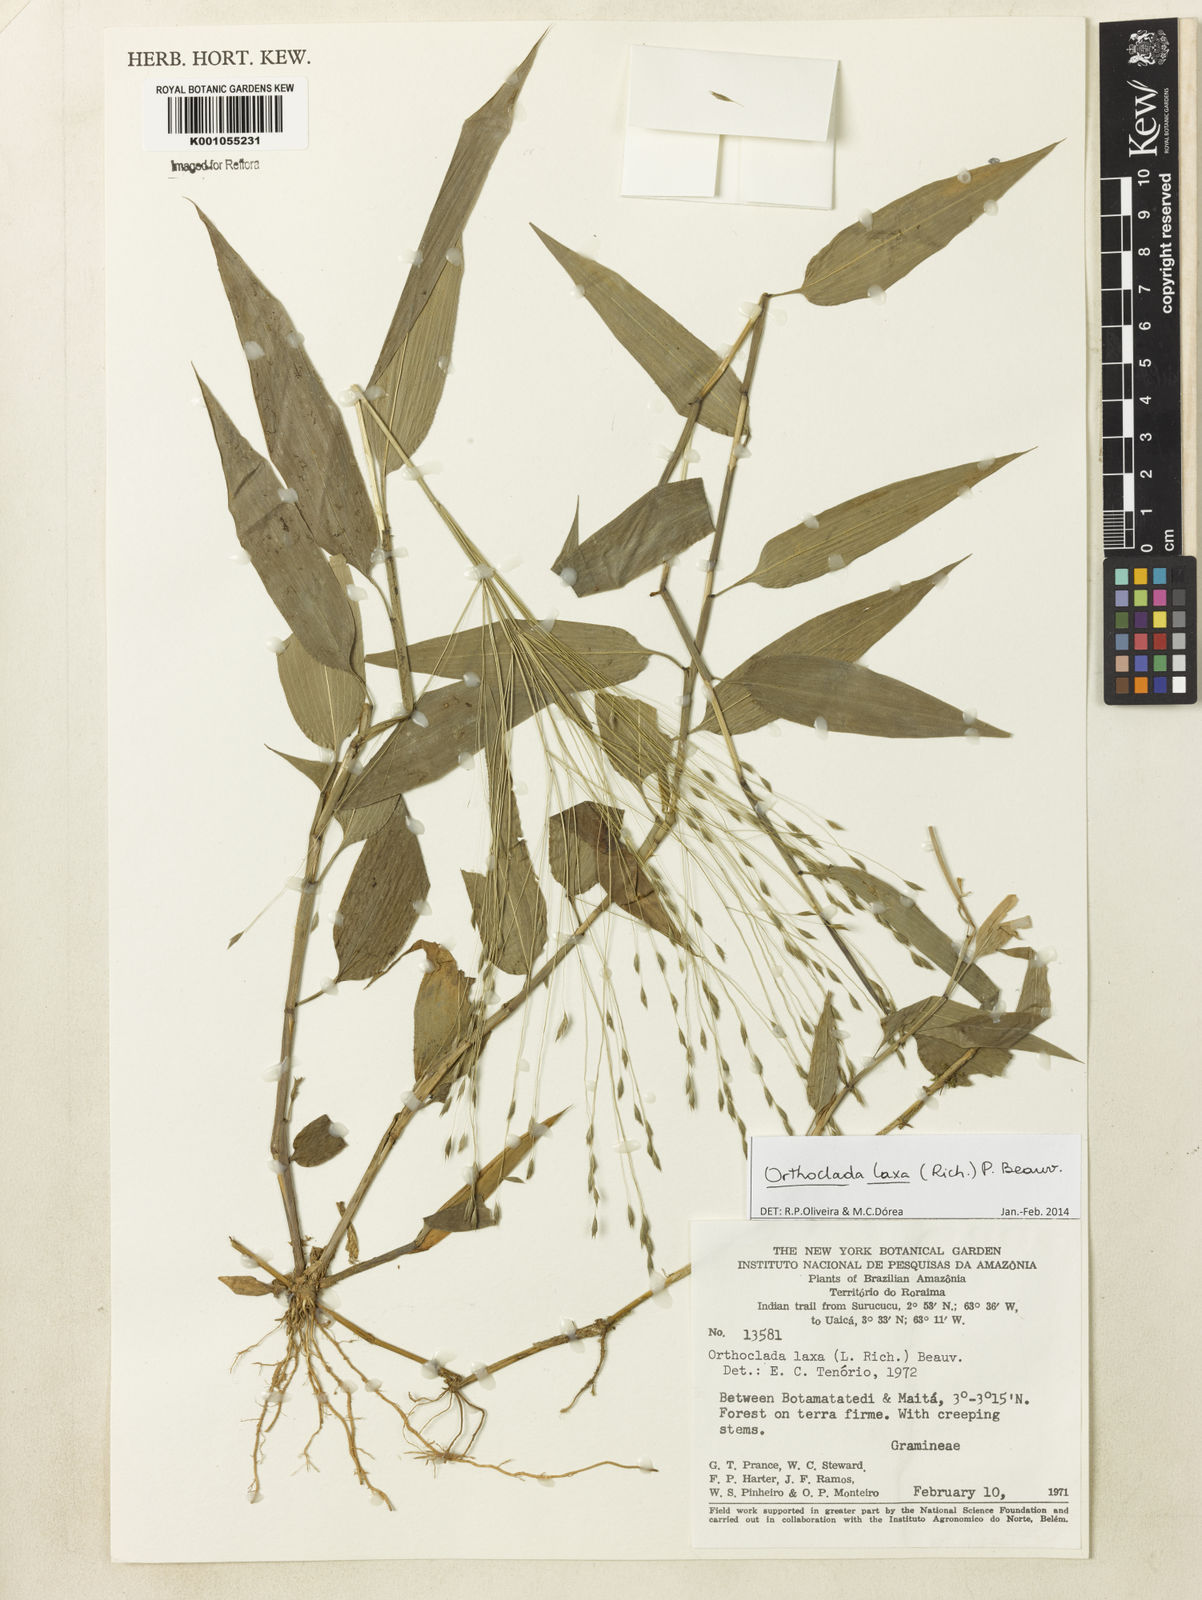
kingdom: Plantae
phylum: Tracheophyta
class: Liliopsida
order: Poales
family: Poaceae
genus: Orthoclada
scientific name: Orthoclada laxa
